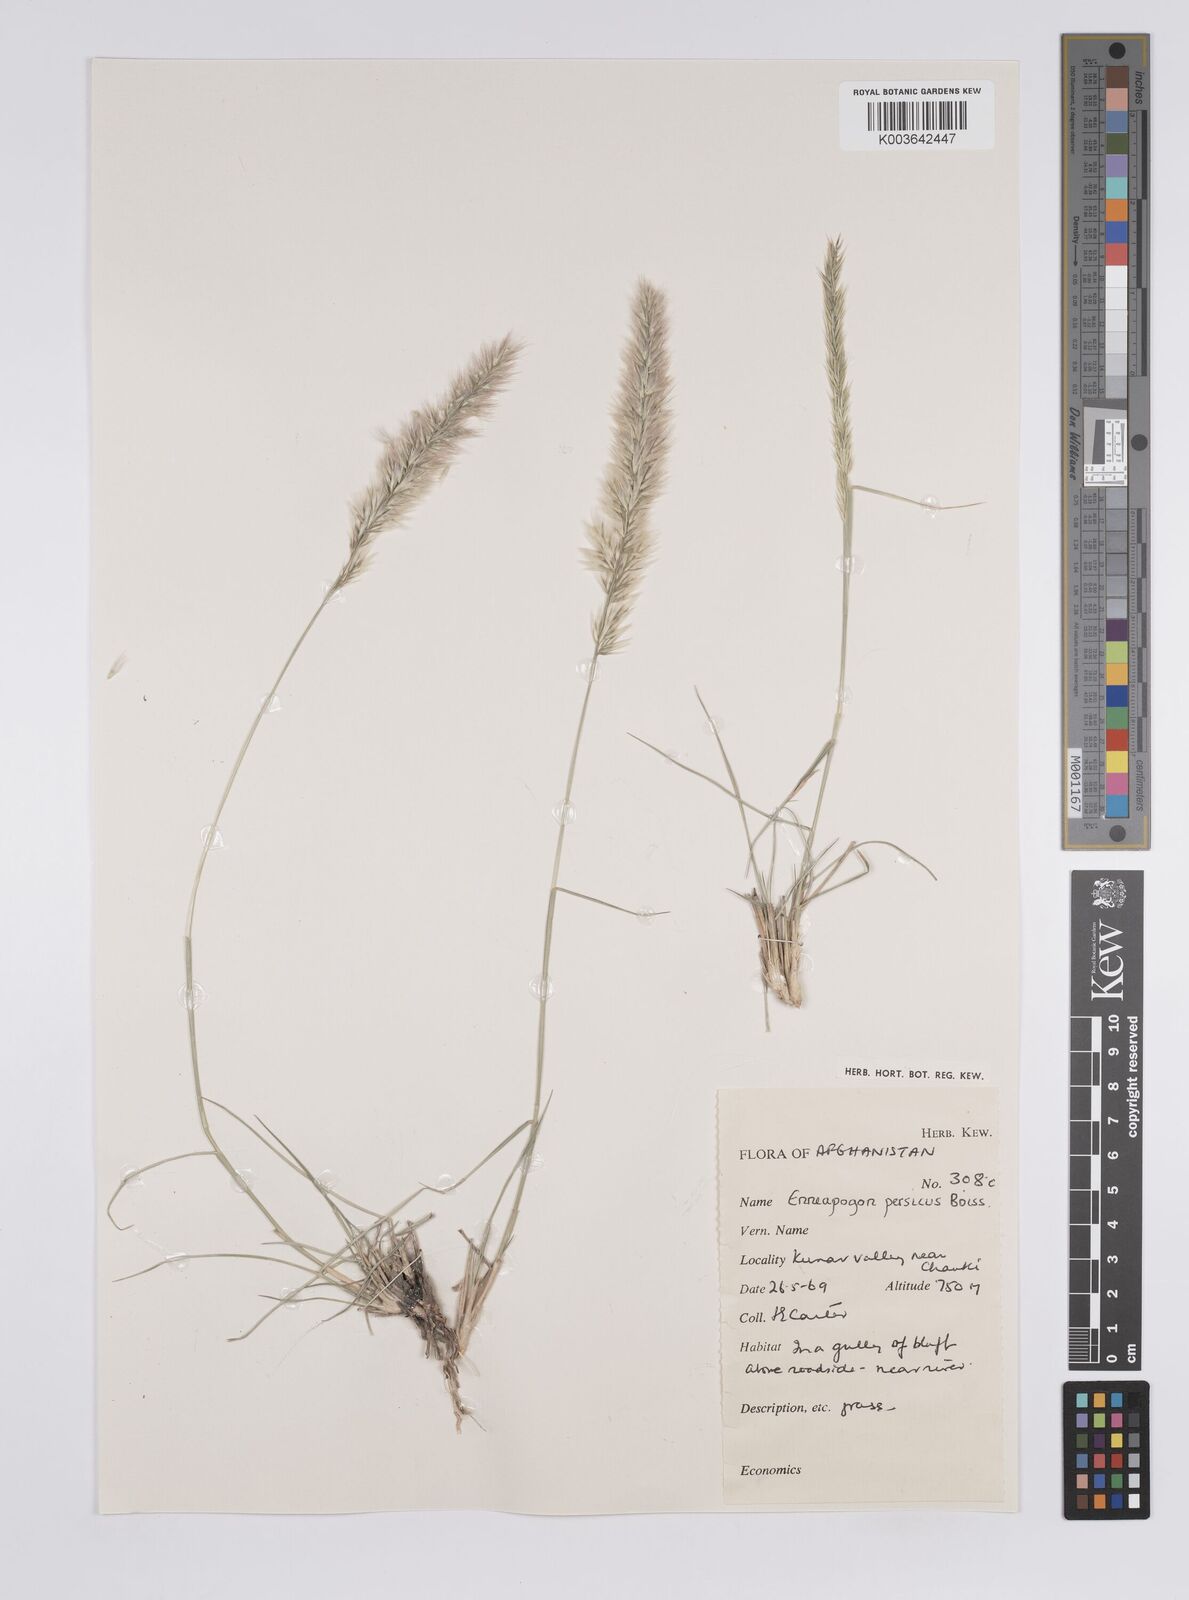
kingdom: Plantae
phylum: Tracheophyta
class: Liliopsida
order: Poales
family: Poaceae
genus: Enneapogon
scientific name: Enneapogon persicus
